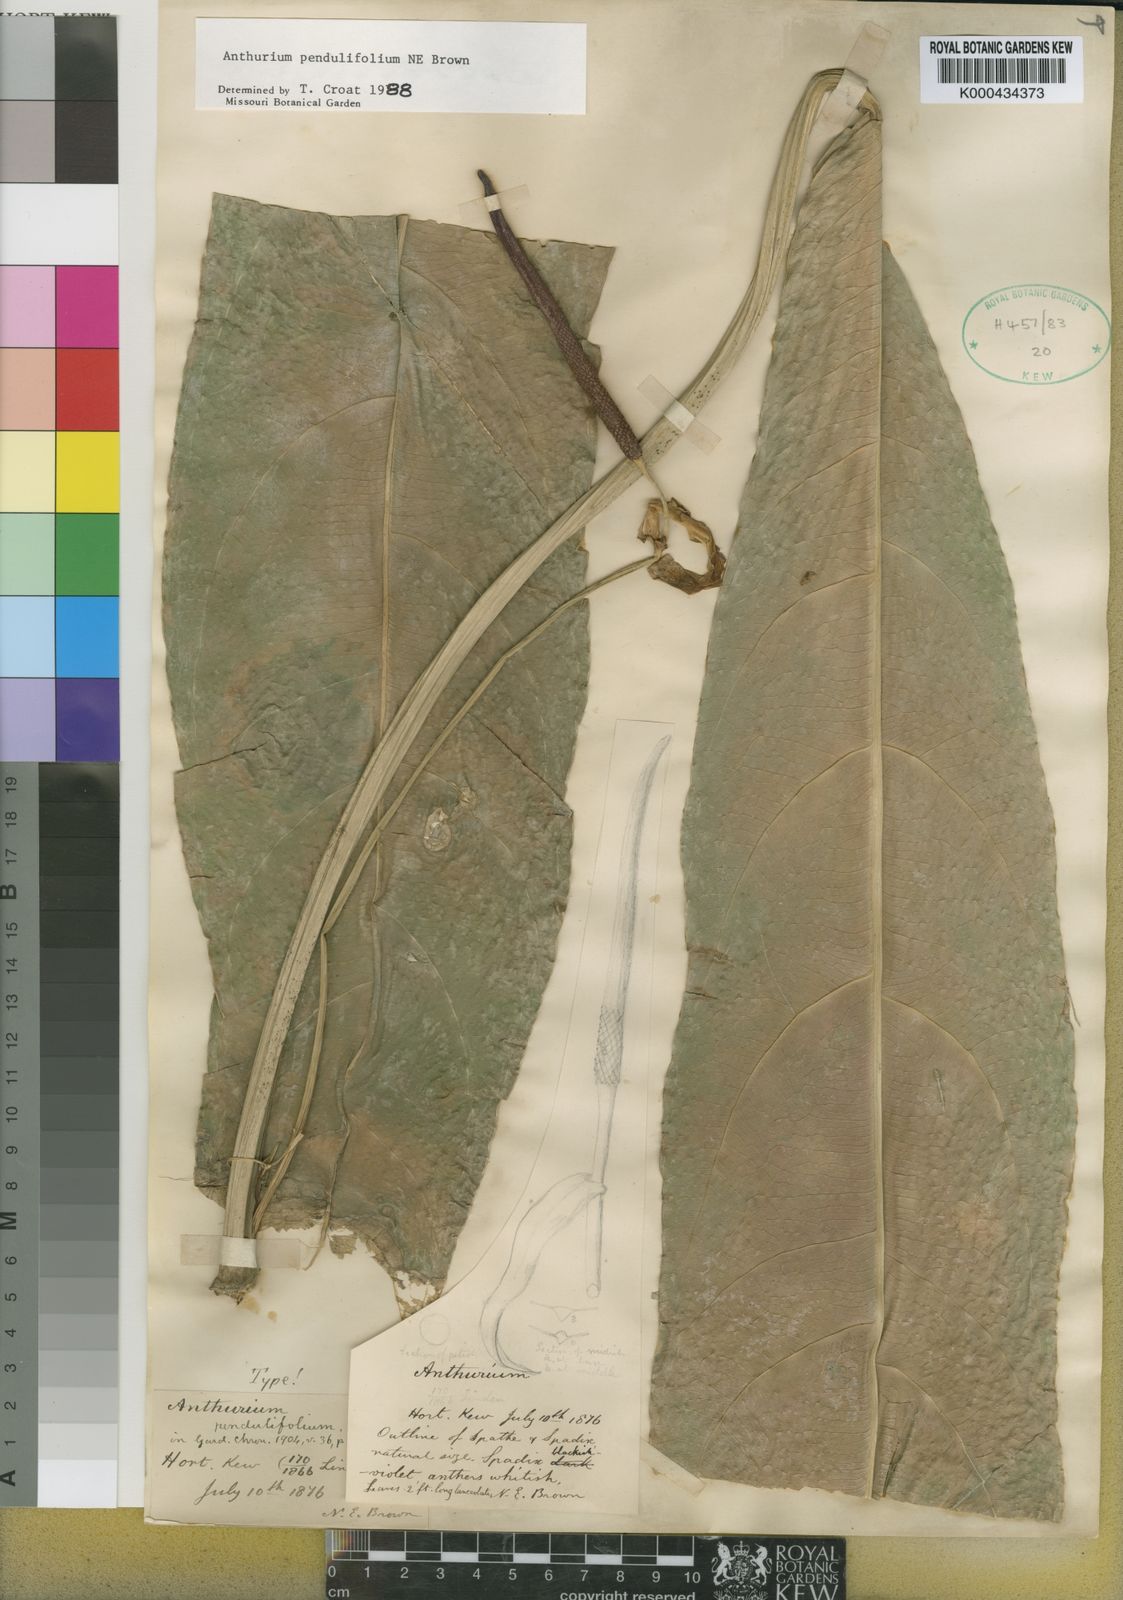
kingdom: Plantae
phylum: Tracheophyta
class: Liliopsida
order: Alismatales
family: Araceae
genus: Anthurium
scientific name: Anthurium pendulifolium
